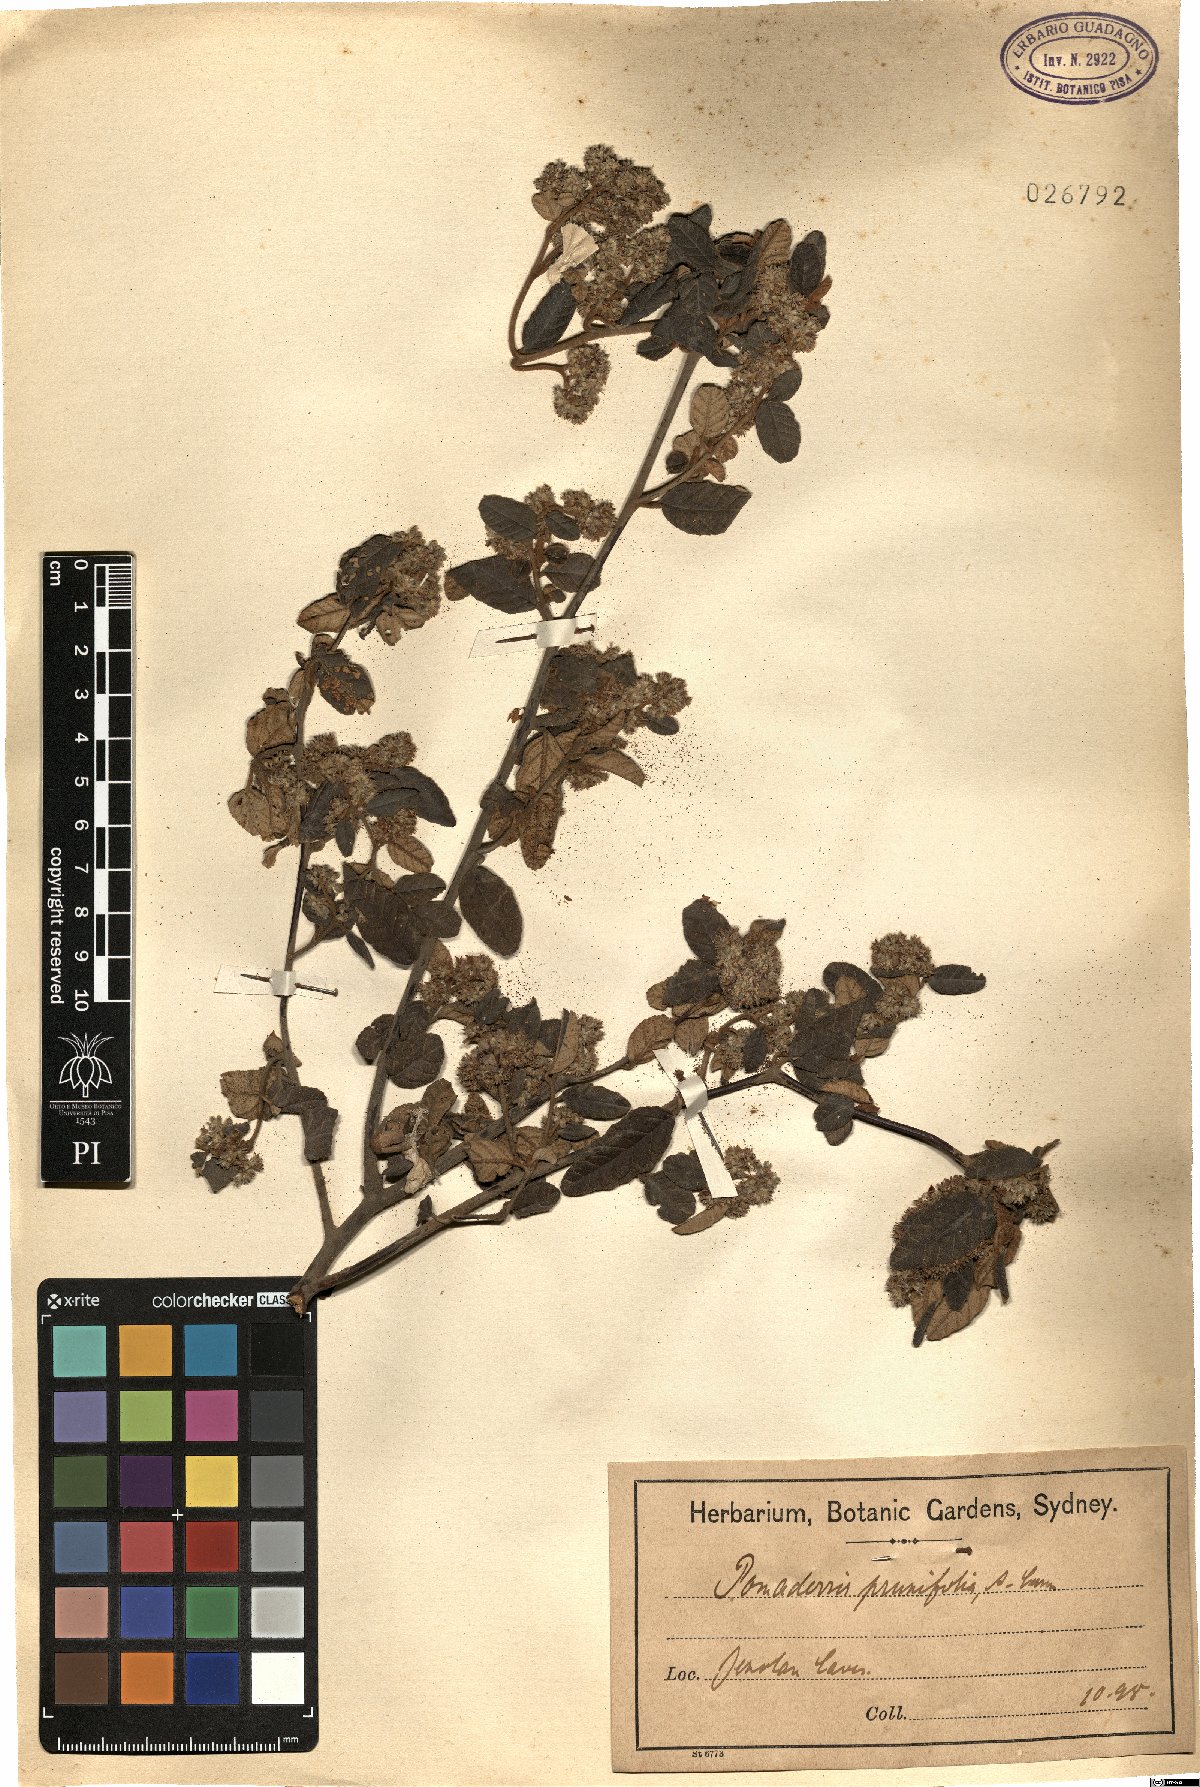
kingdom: Plantae
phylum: Tracheophyta
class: Magnoliopsida
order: Rosales
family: Rhamnaceae
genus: Pomaderris
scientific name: Pomaderris prunifolia
